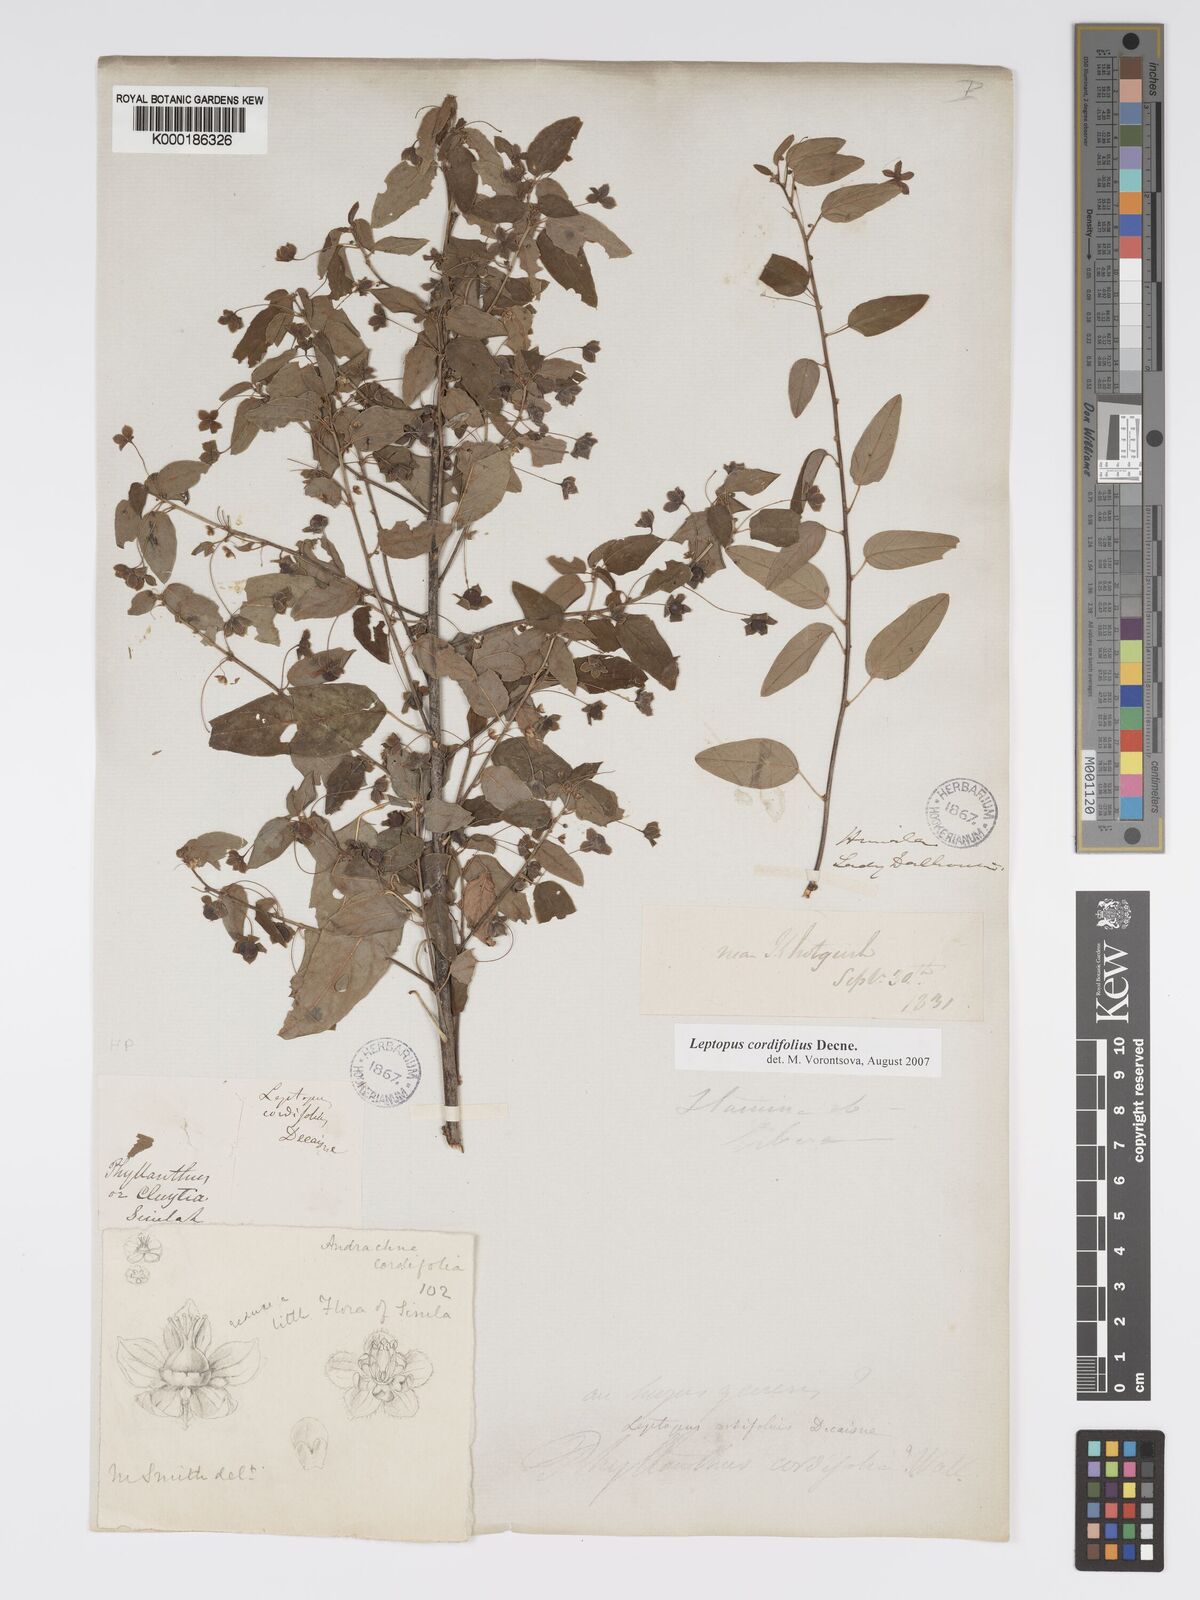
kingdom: Plantae
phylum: Tracheophyta
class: Magnoliopsida
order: Malpighiales
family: Phyllanthaceae
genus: Leptopus
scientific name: Leptopus cordifolius
